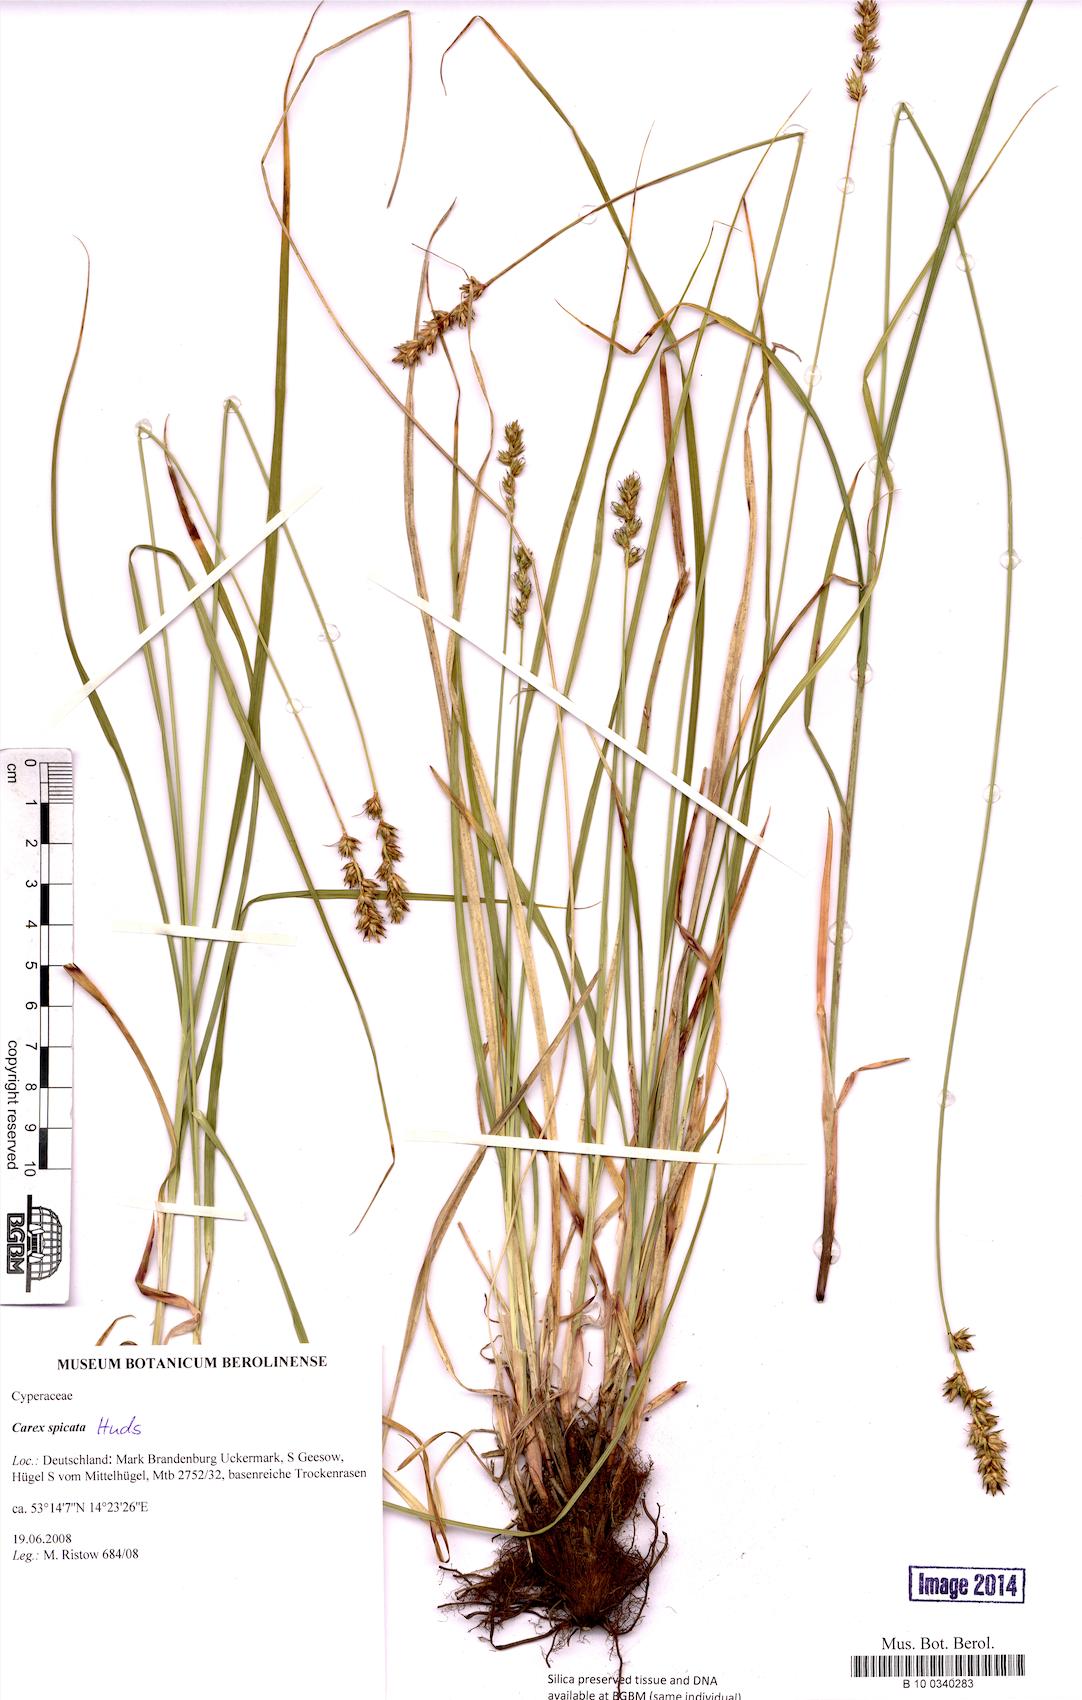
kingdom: Plantae
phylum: Tracheophyta
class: Liliopsida
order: Poales
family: Cyperaceae
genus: Carex
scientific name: Carex spicata
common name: Spiked sedge
